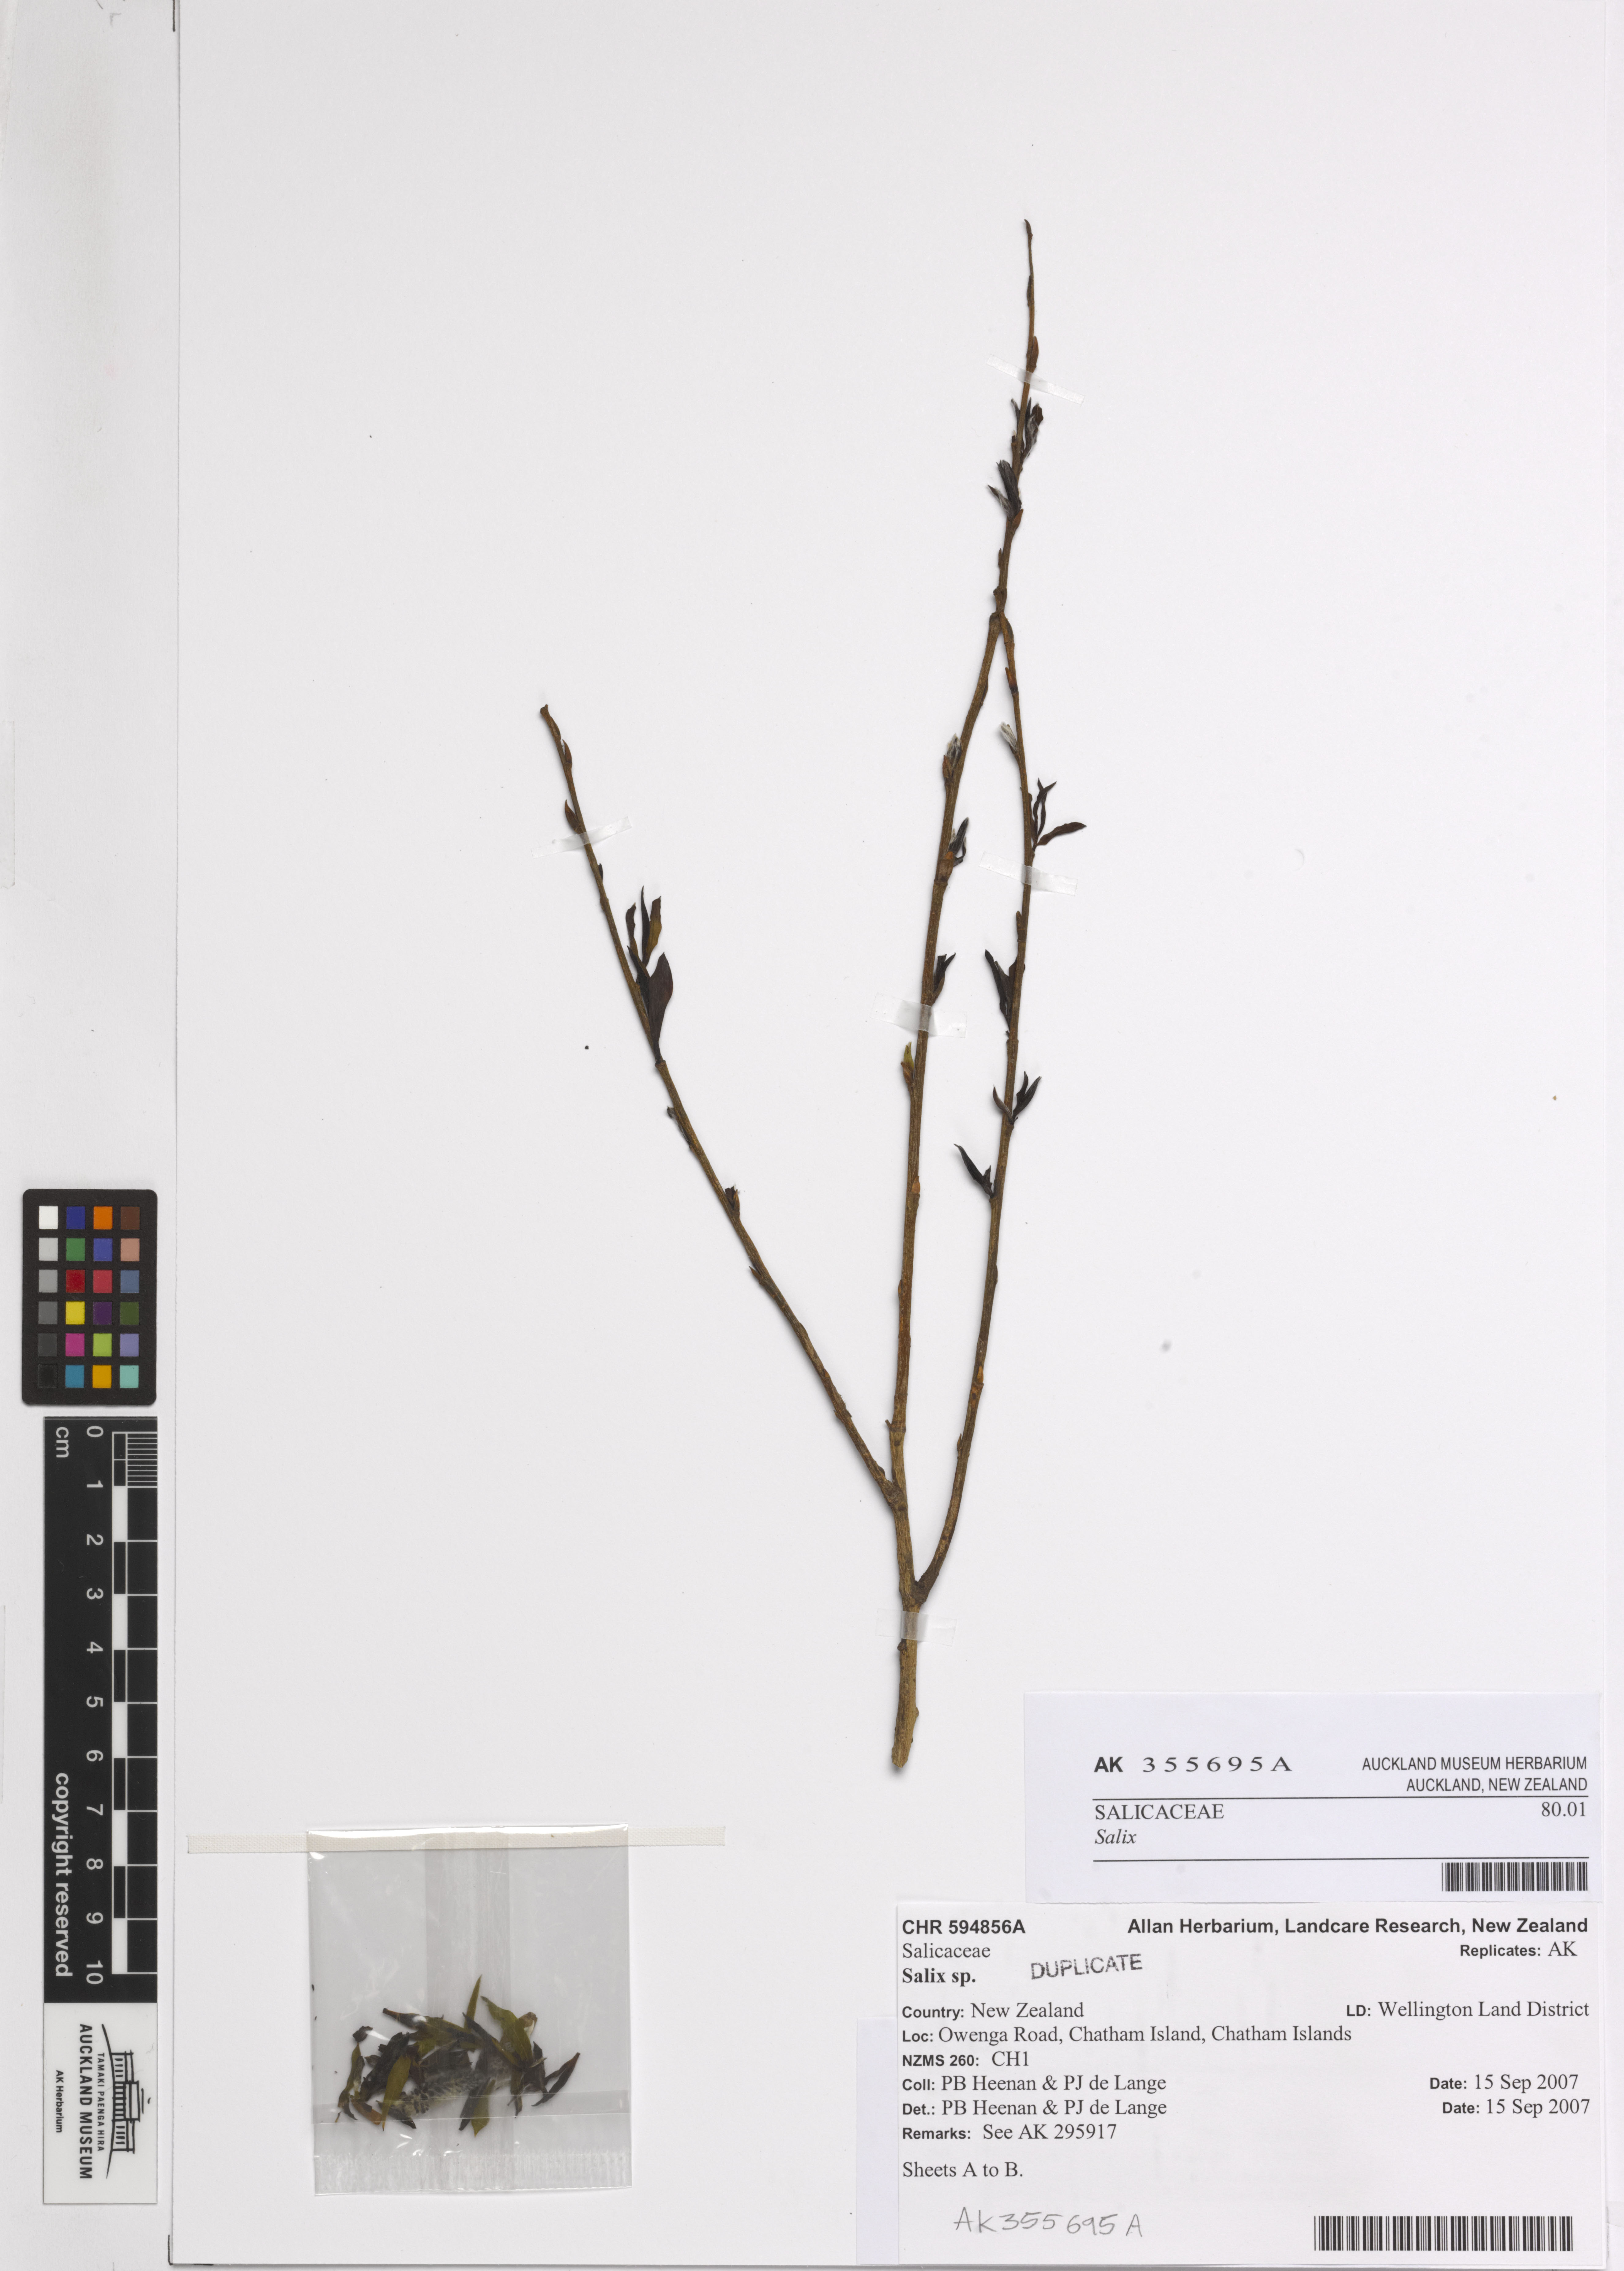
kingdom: Plantae
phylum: Tracheophyta
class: Magnoliopsida
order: Malpighiales
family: Salicaceae
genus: Salix
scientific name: Salix
